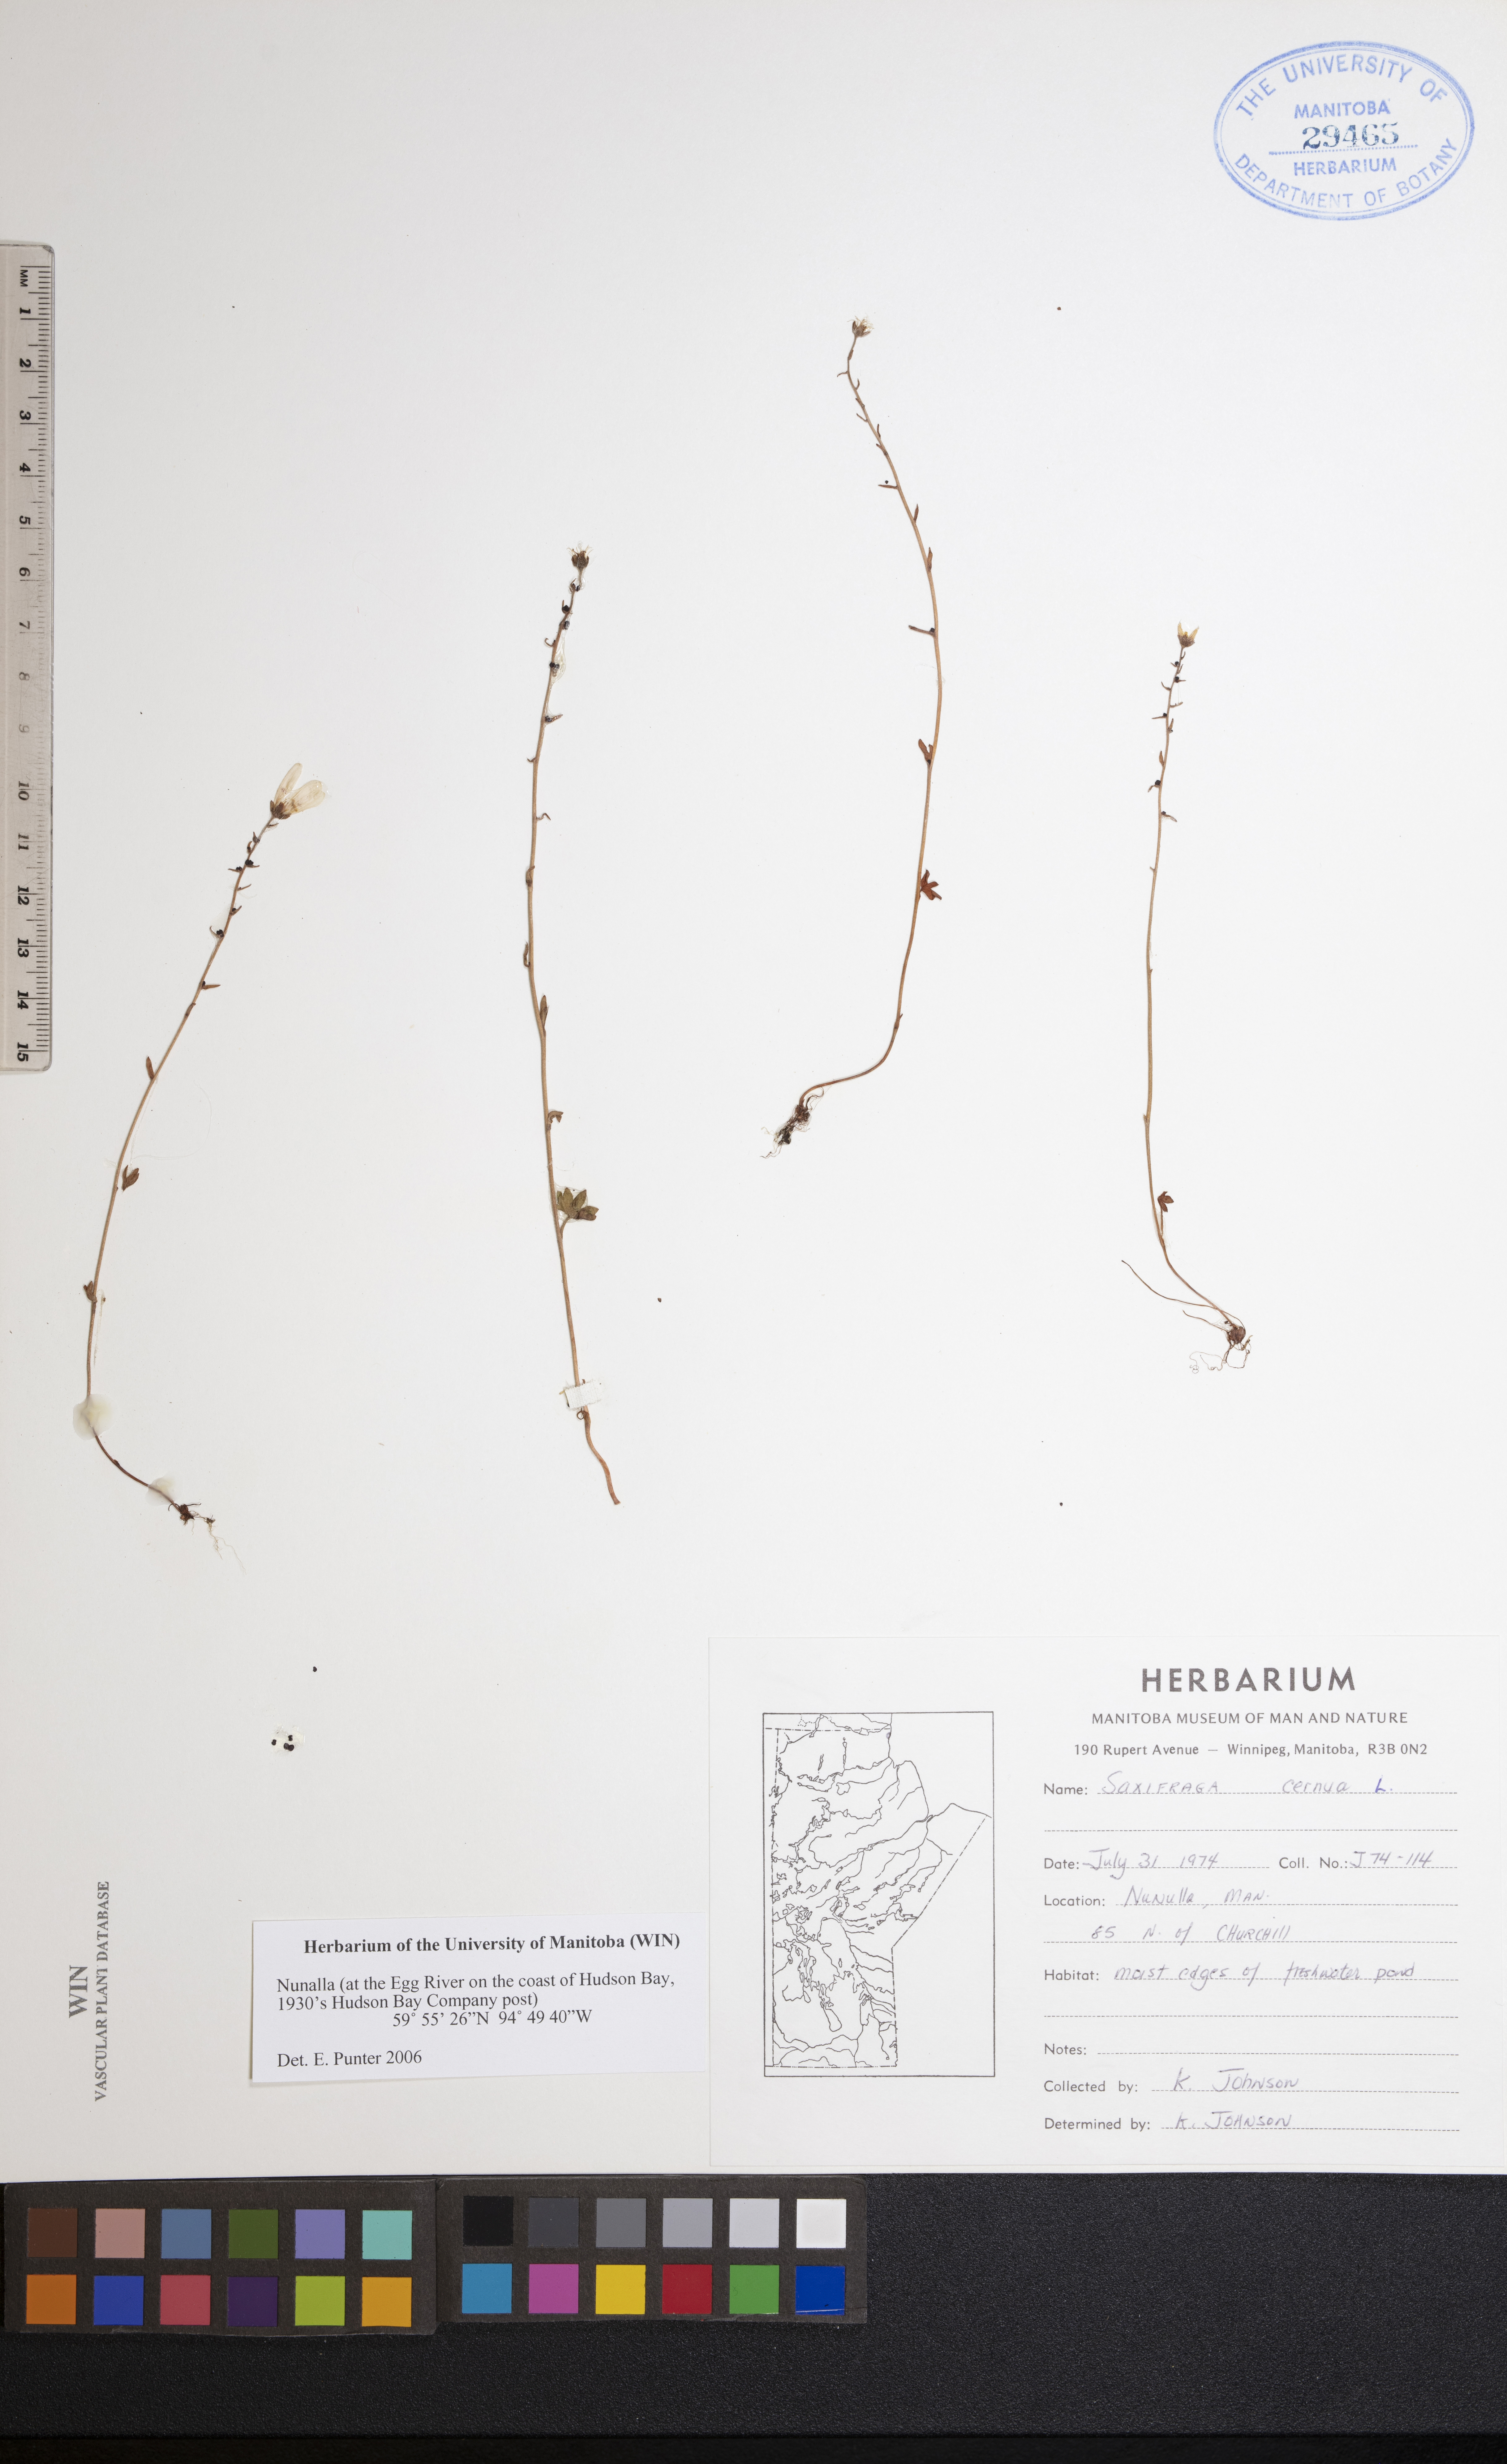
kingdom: Plantae
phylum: Tracheophyta
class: Magnoliopsida
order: Saxifragales
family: Saxifragaceae
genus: Saxifraga
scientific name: Saxifraga cernua
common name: Drooping saxifrage
